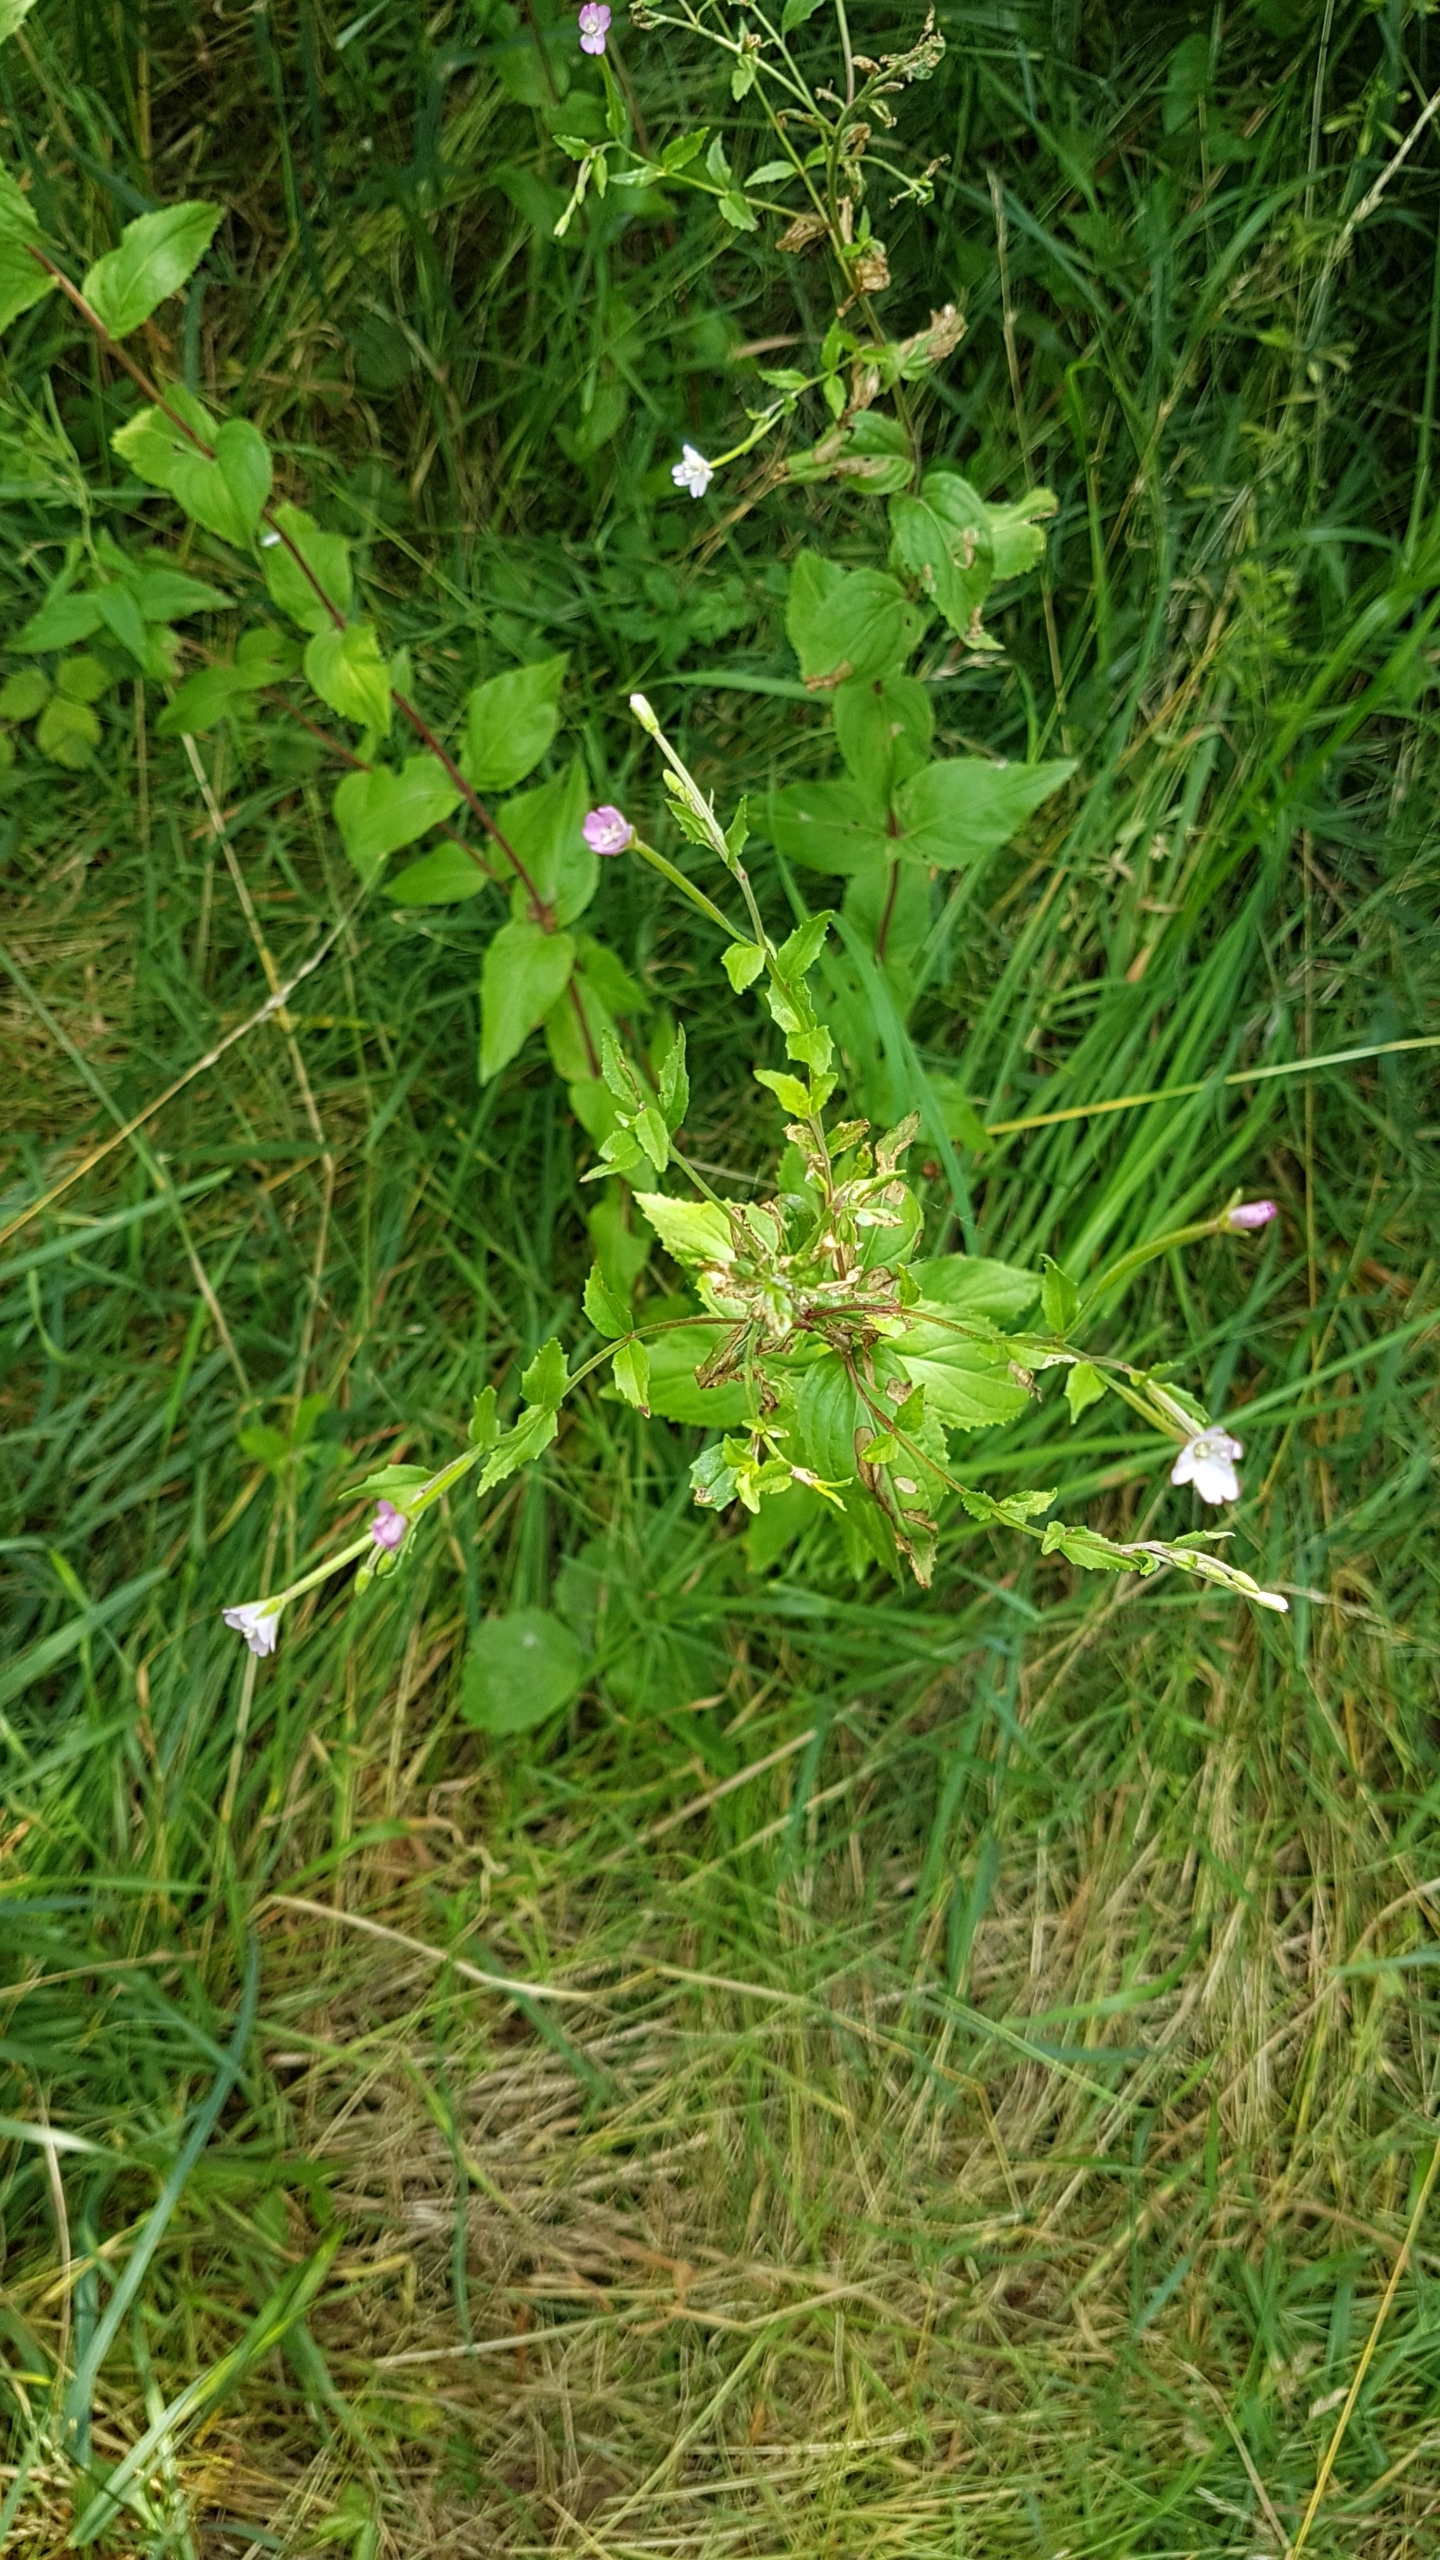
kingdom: Plantae
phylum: Tracheophyta
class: Magnoliopsida
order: Myrtales
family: Onagraceae
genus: Epilobium
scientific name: Epilobium montanum
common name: Glat dueurt
